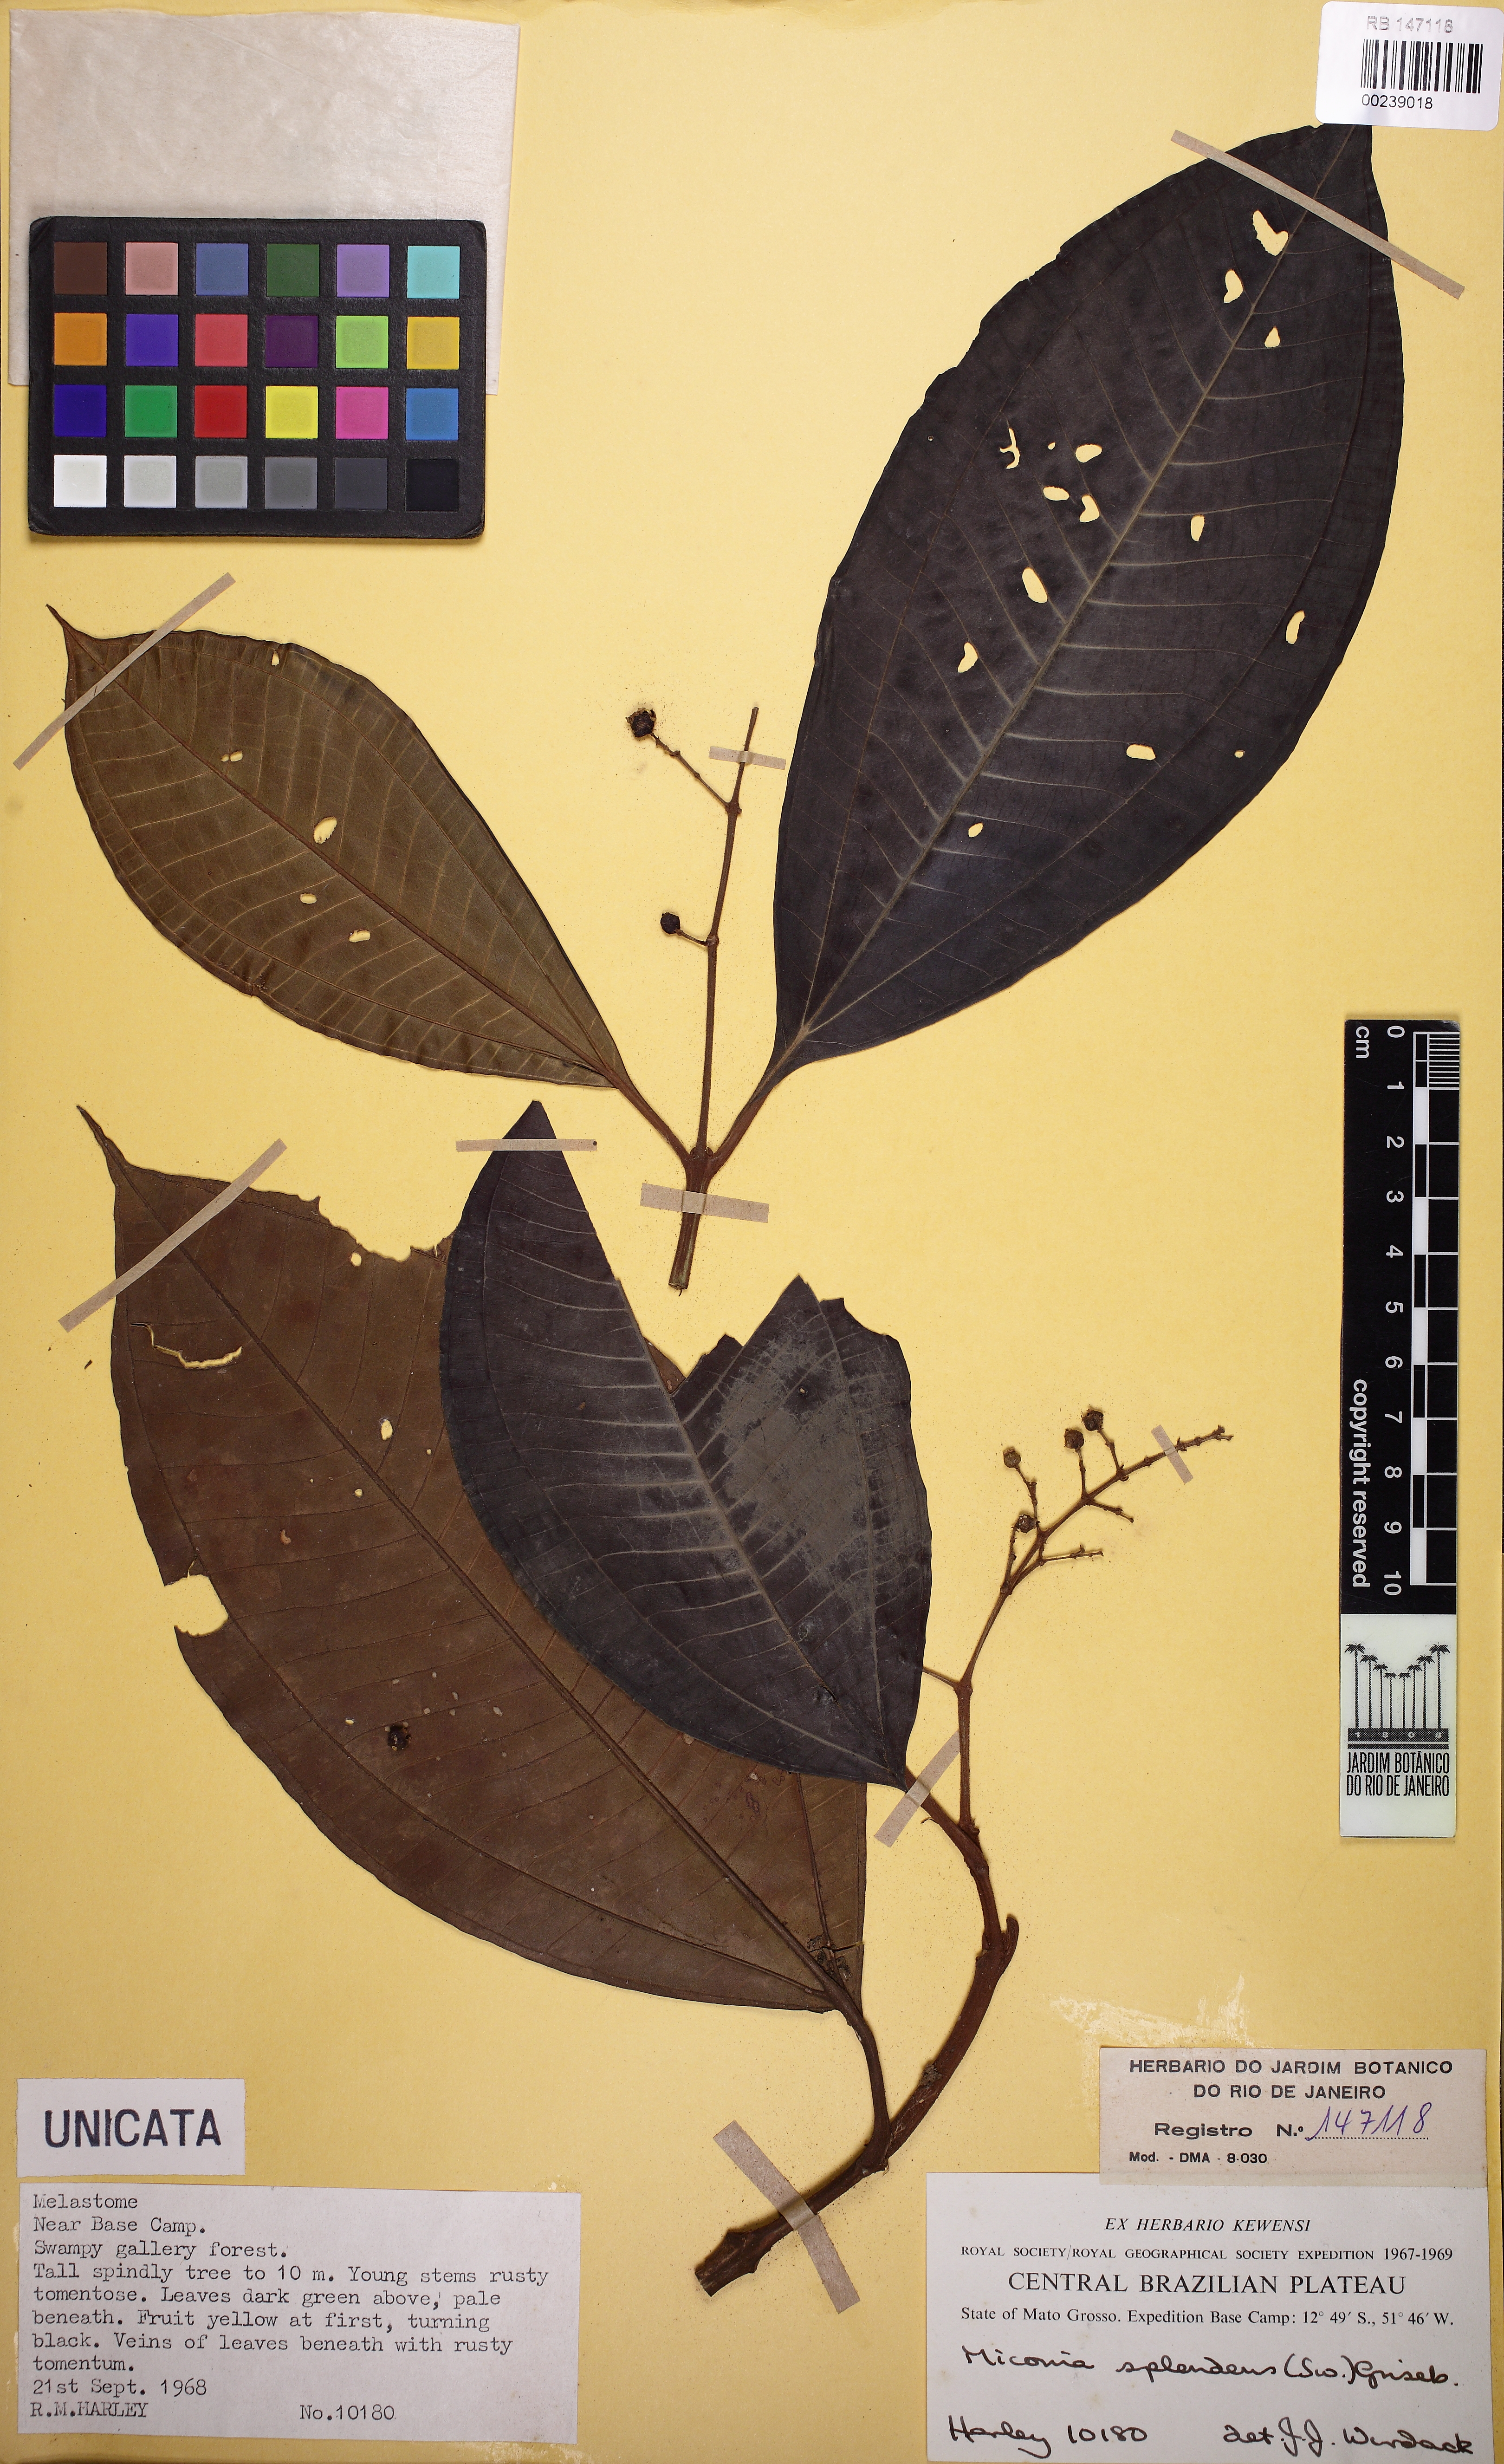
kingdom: Plantae
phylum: Tracheophyta
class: Magnoliopsida
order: Myrtales
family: Melastomataceae
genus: Miconia
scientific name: Miconia splendens
